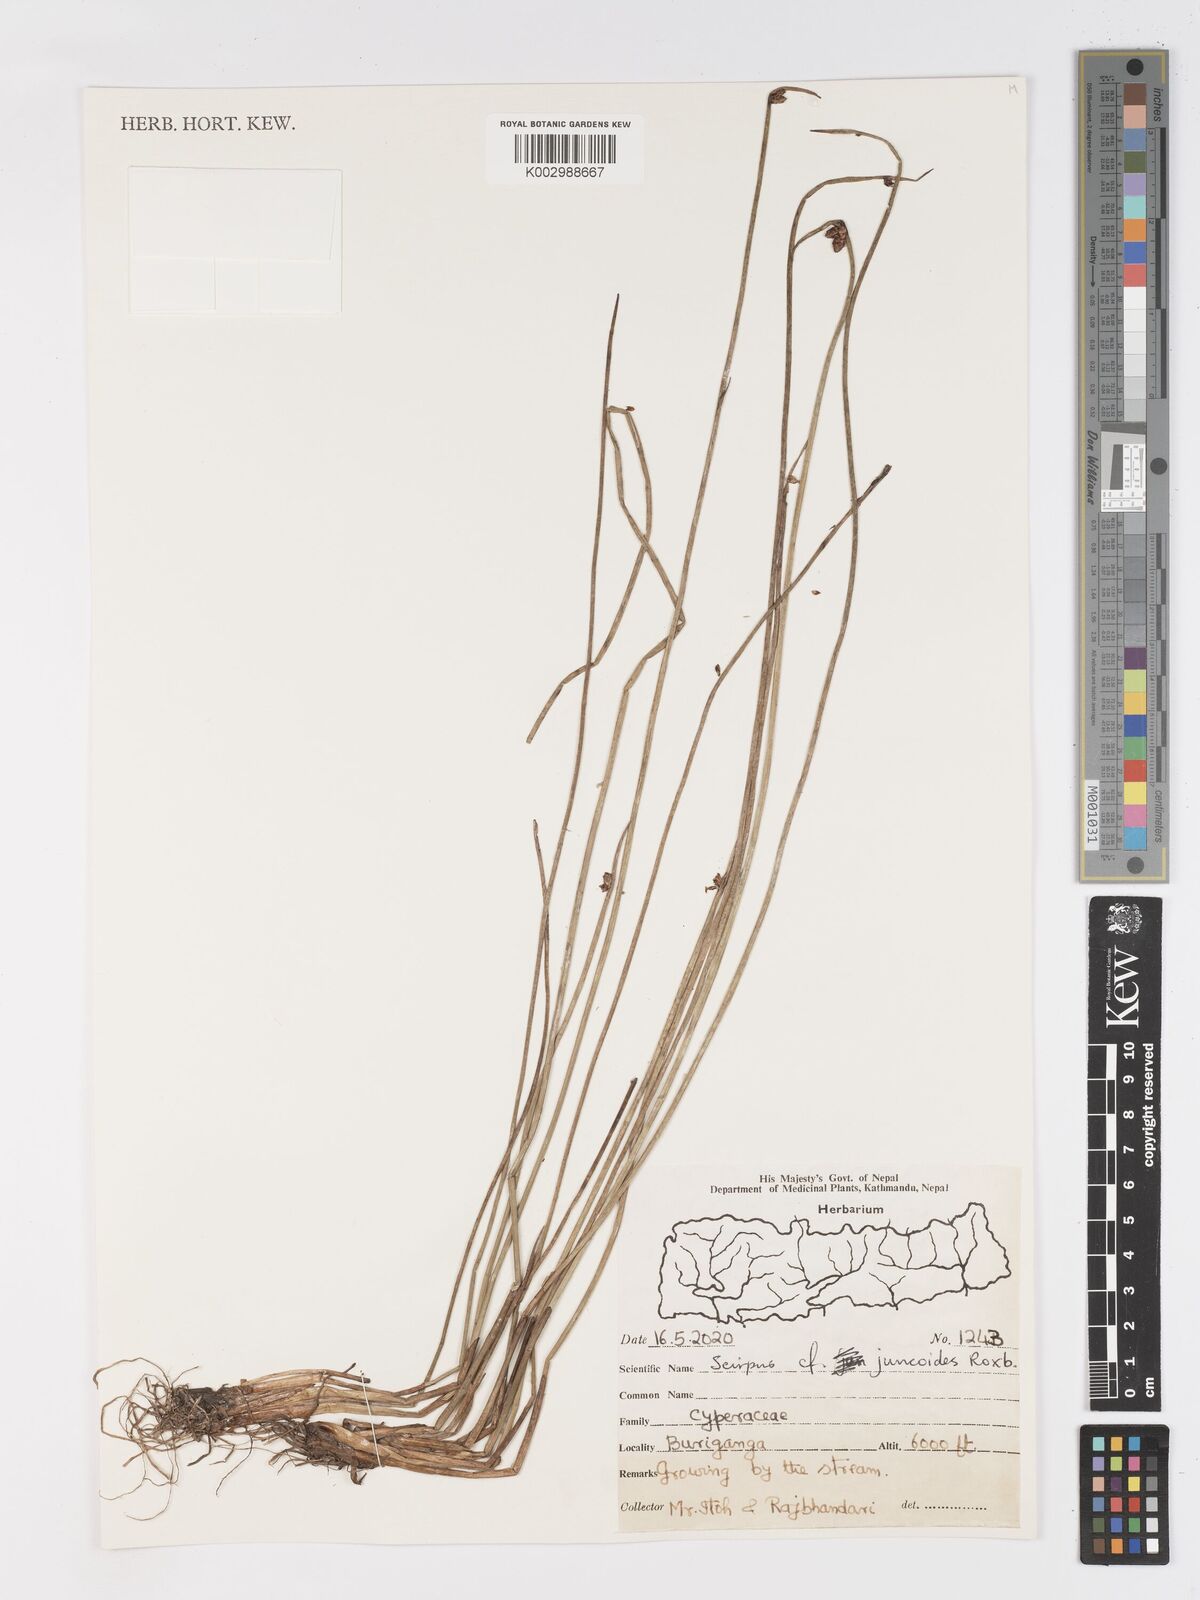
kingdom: Plantae
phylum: Tracheophyta
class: Liliopsida
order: Poales
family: Cyperaceae
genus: Schoenoplectiella
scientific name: Schoenoplectiella juncoides
